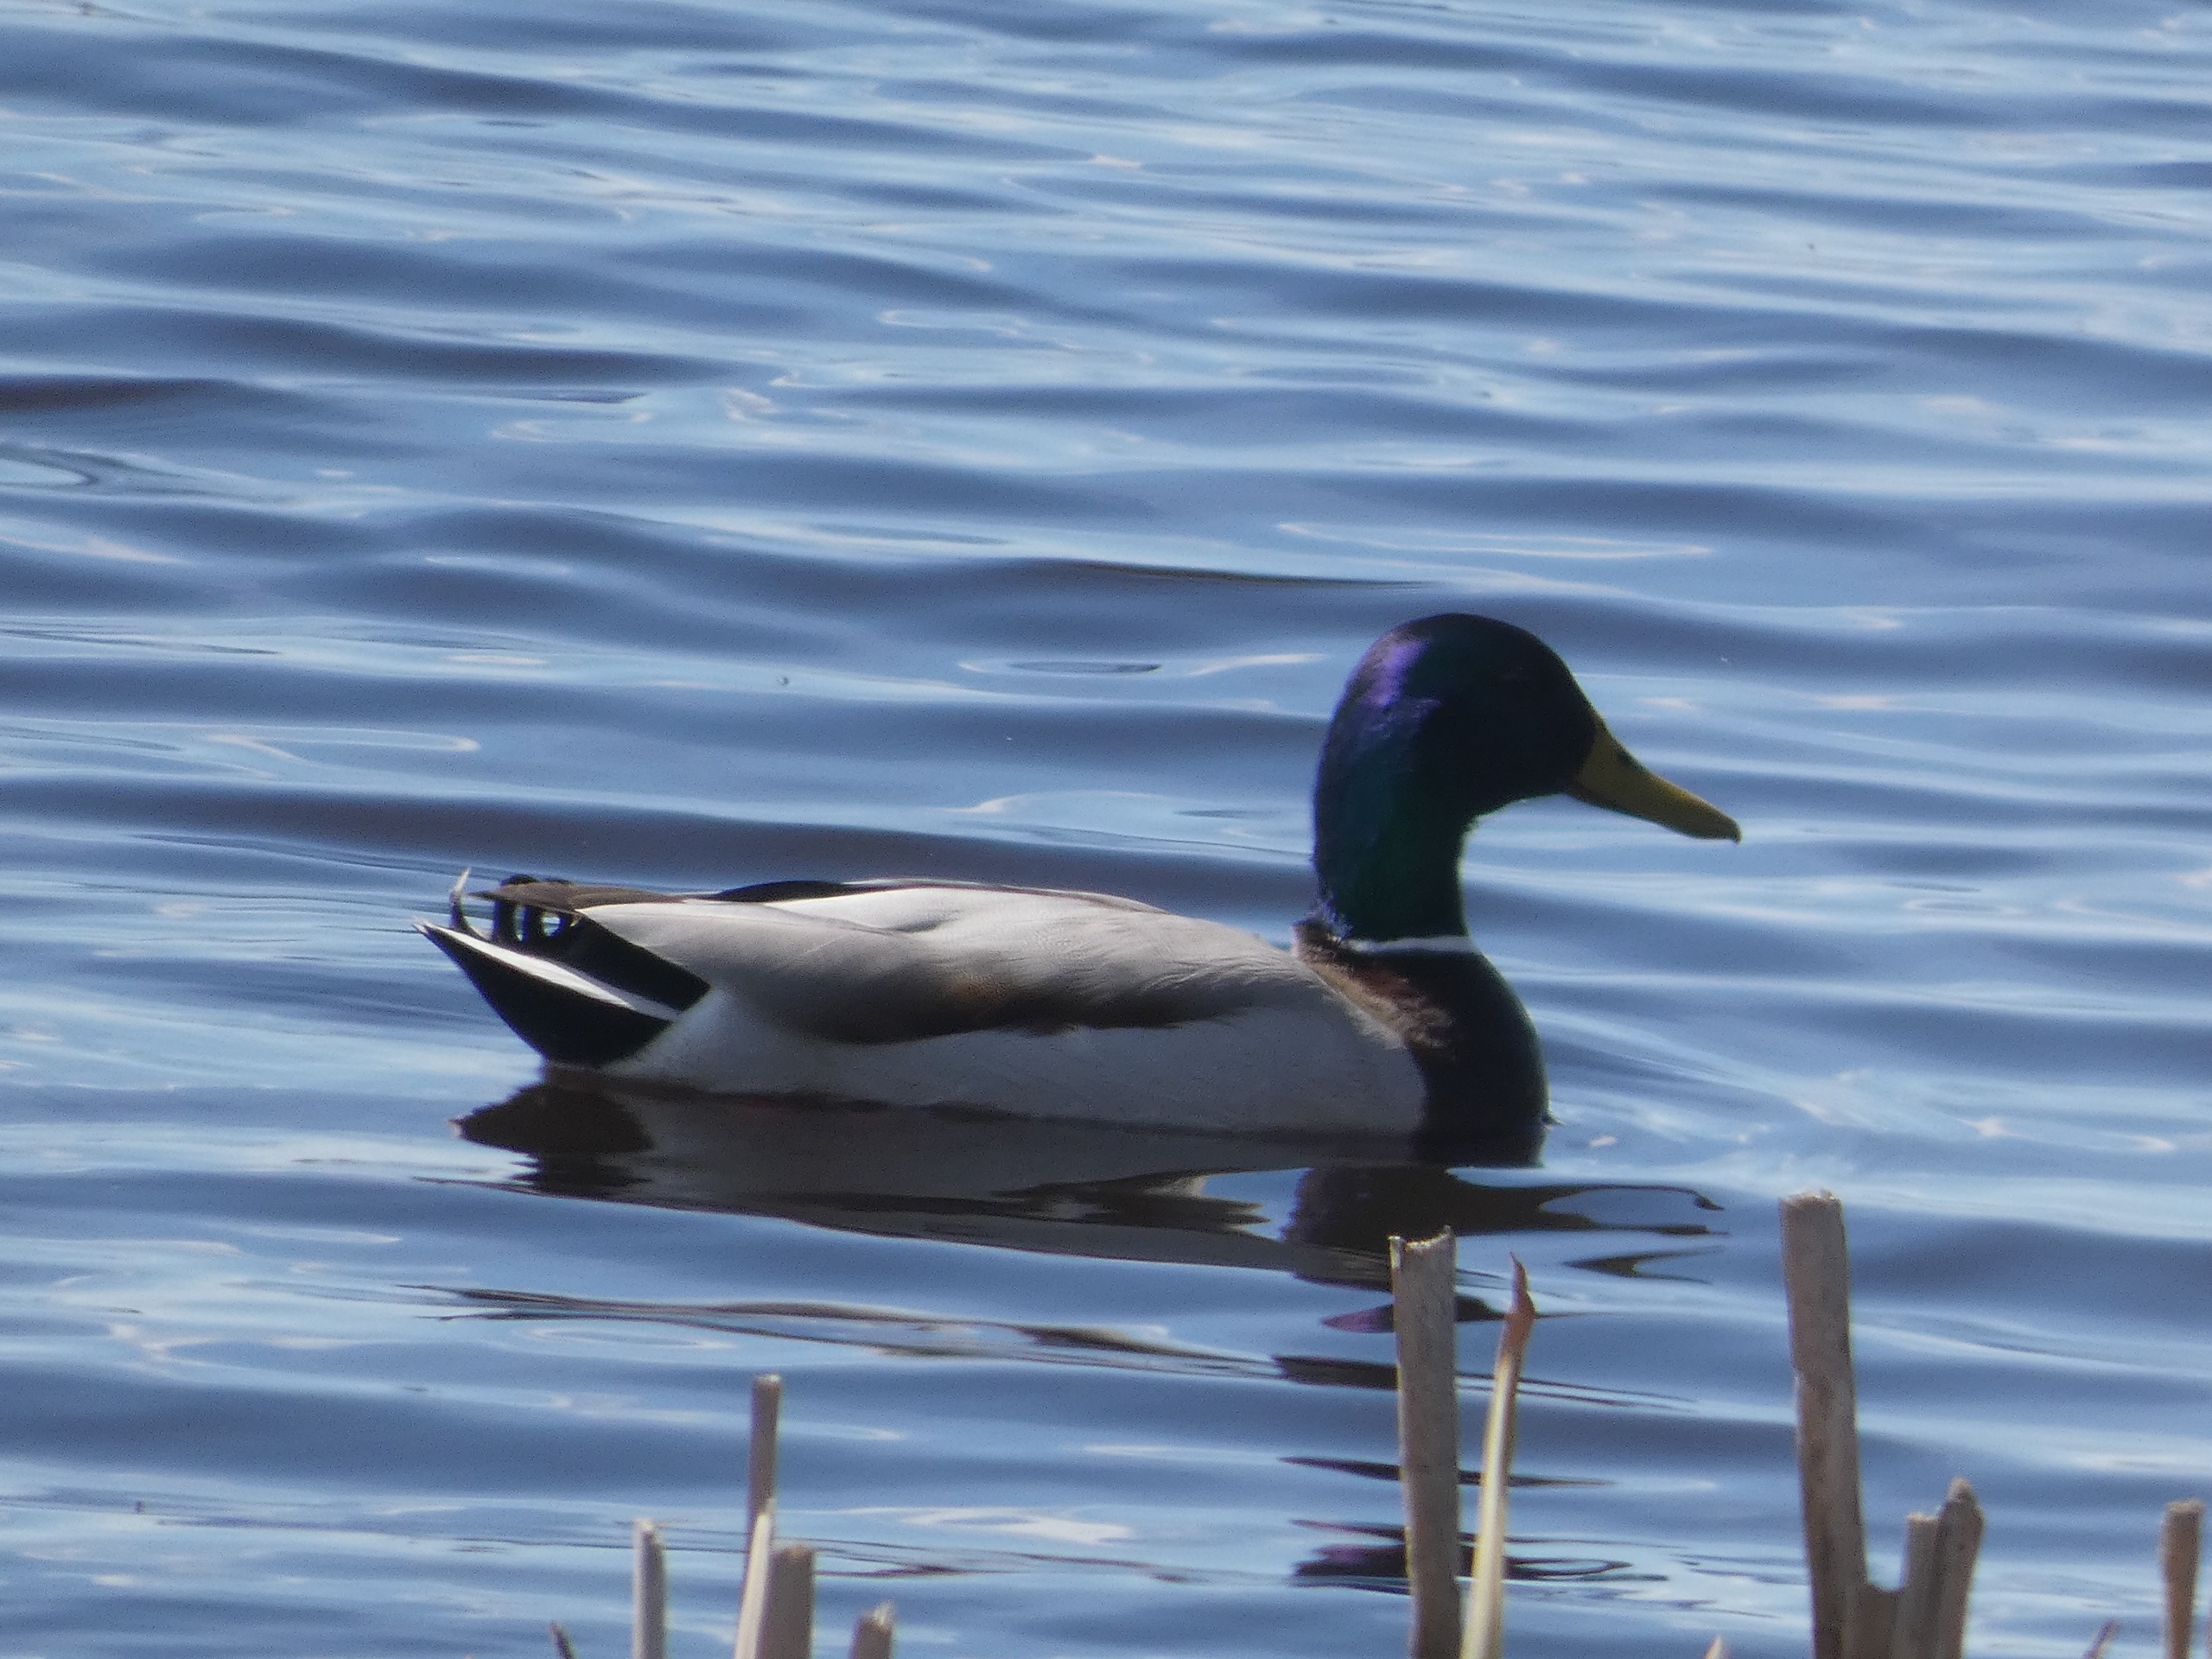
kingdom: Animalia
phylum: Chordata
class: Aves
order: Anseriformes
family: Anatidae
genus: Anas
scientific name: Anas platyrhynchos
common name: Gråand
